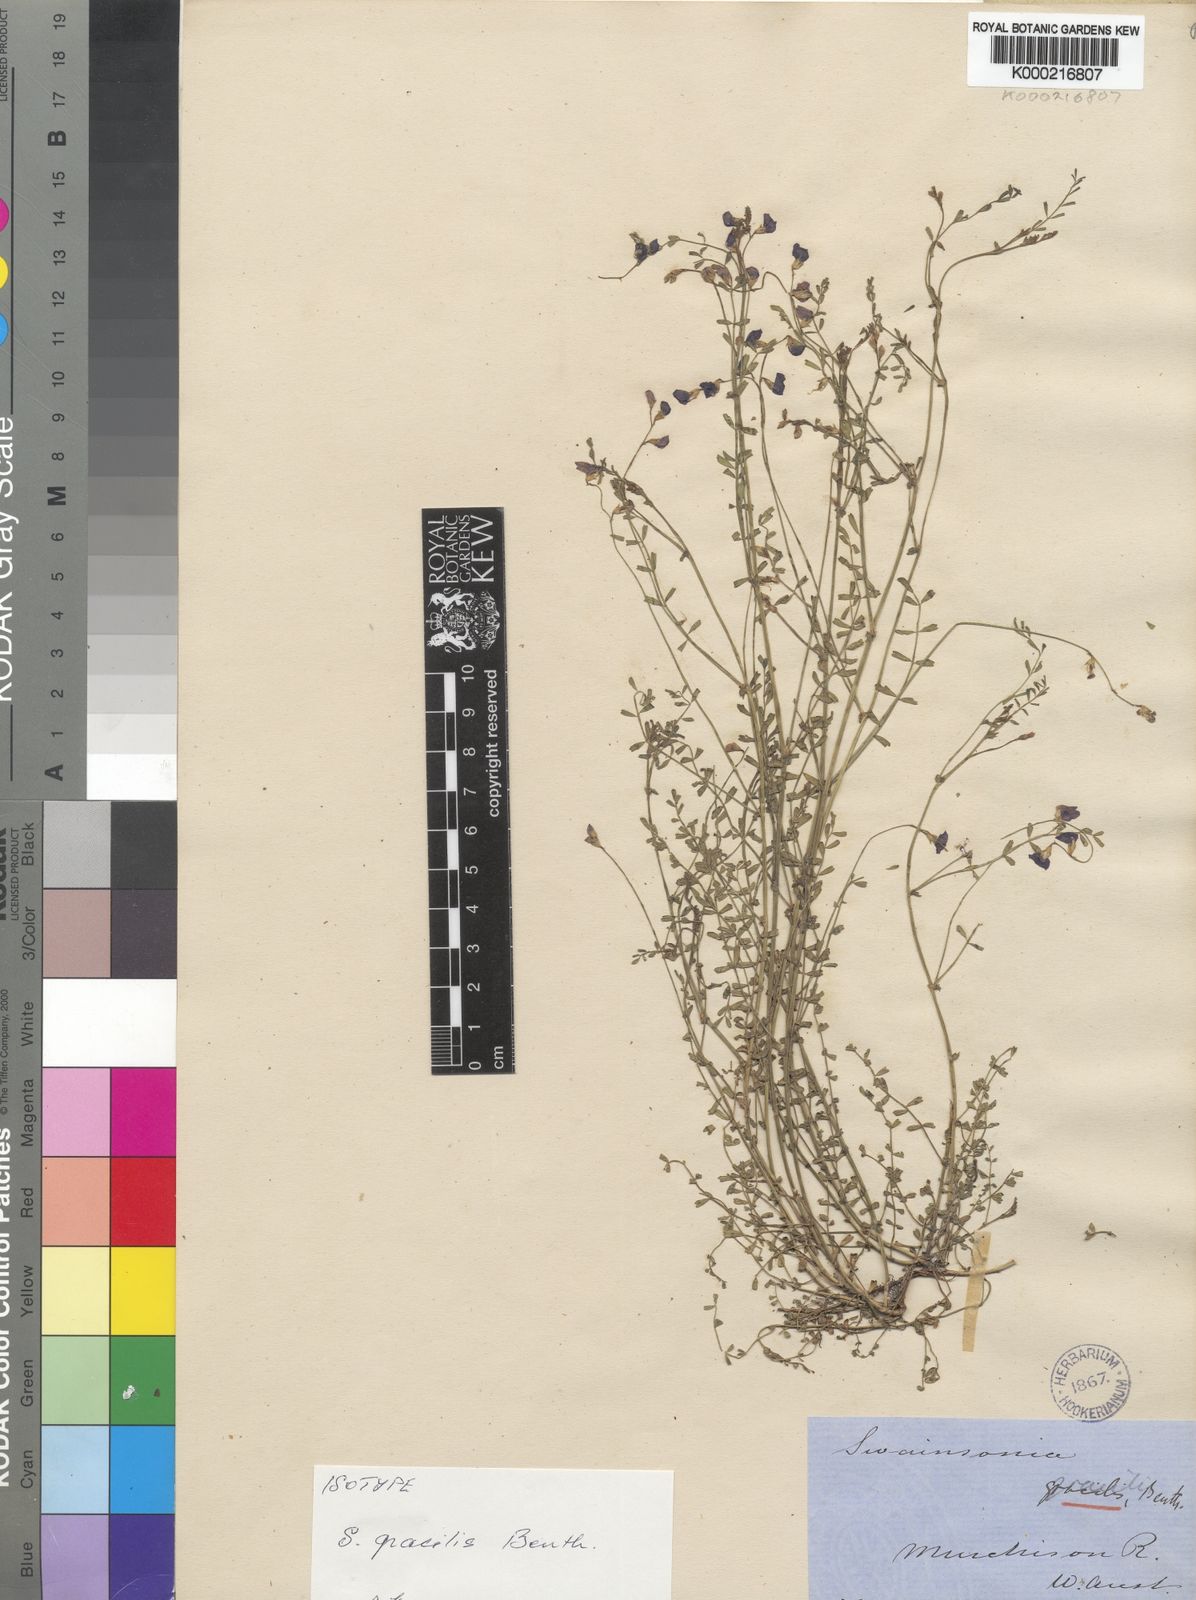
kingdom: Plantae
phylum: Tracheophyta
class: Magnoliopsida
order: Fabales
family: Fabaceae
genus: Swainsona
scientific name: Swainsona gracilis
